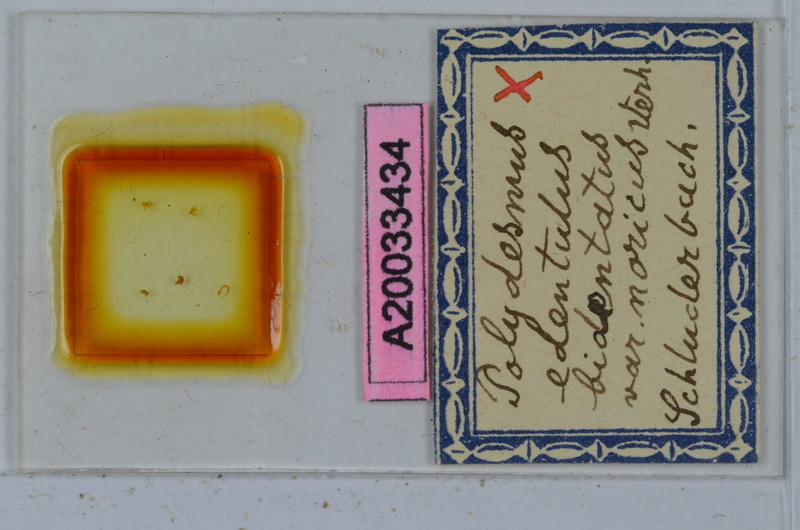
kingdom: Animalia
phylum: Arthropoda
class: Diplopoda
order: Polydesmida
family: Polydesmidae
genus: Polydesmus
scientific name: Polydesmus edentulus
